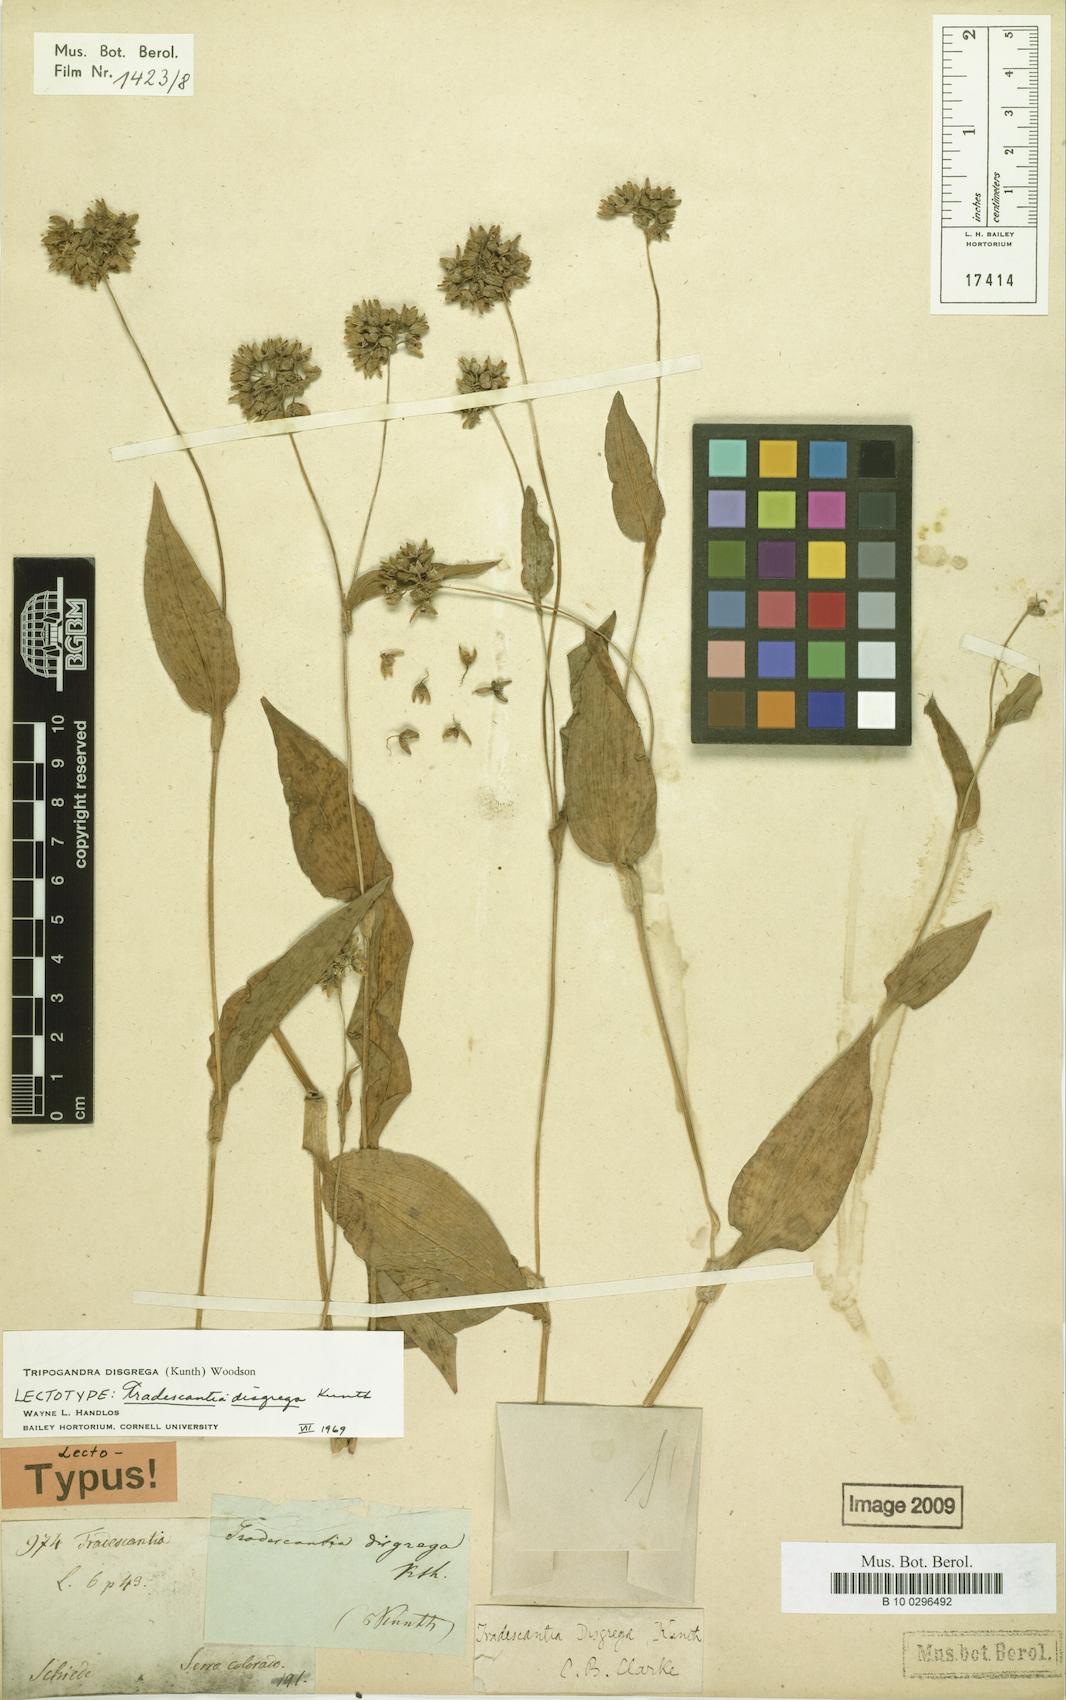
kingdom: Plantae
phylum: Tracheophyta
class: Liliopsida
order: Commelinales
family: Commelinaceae
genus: Callisia
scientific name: Callisia disgrega
